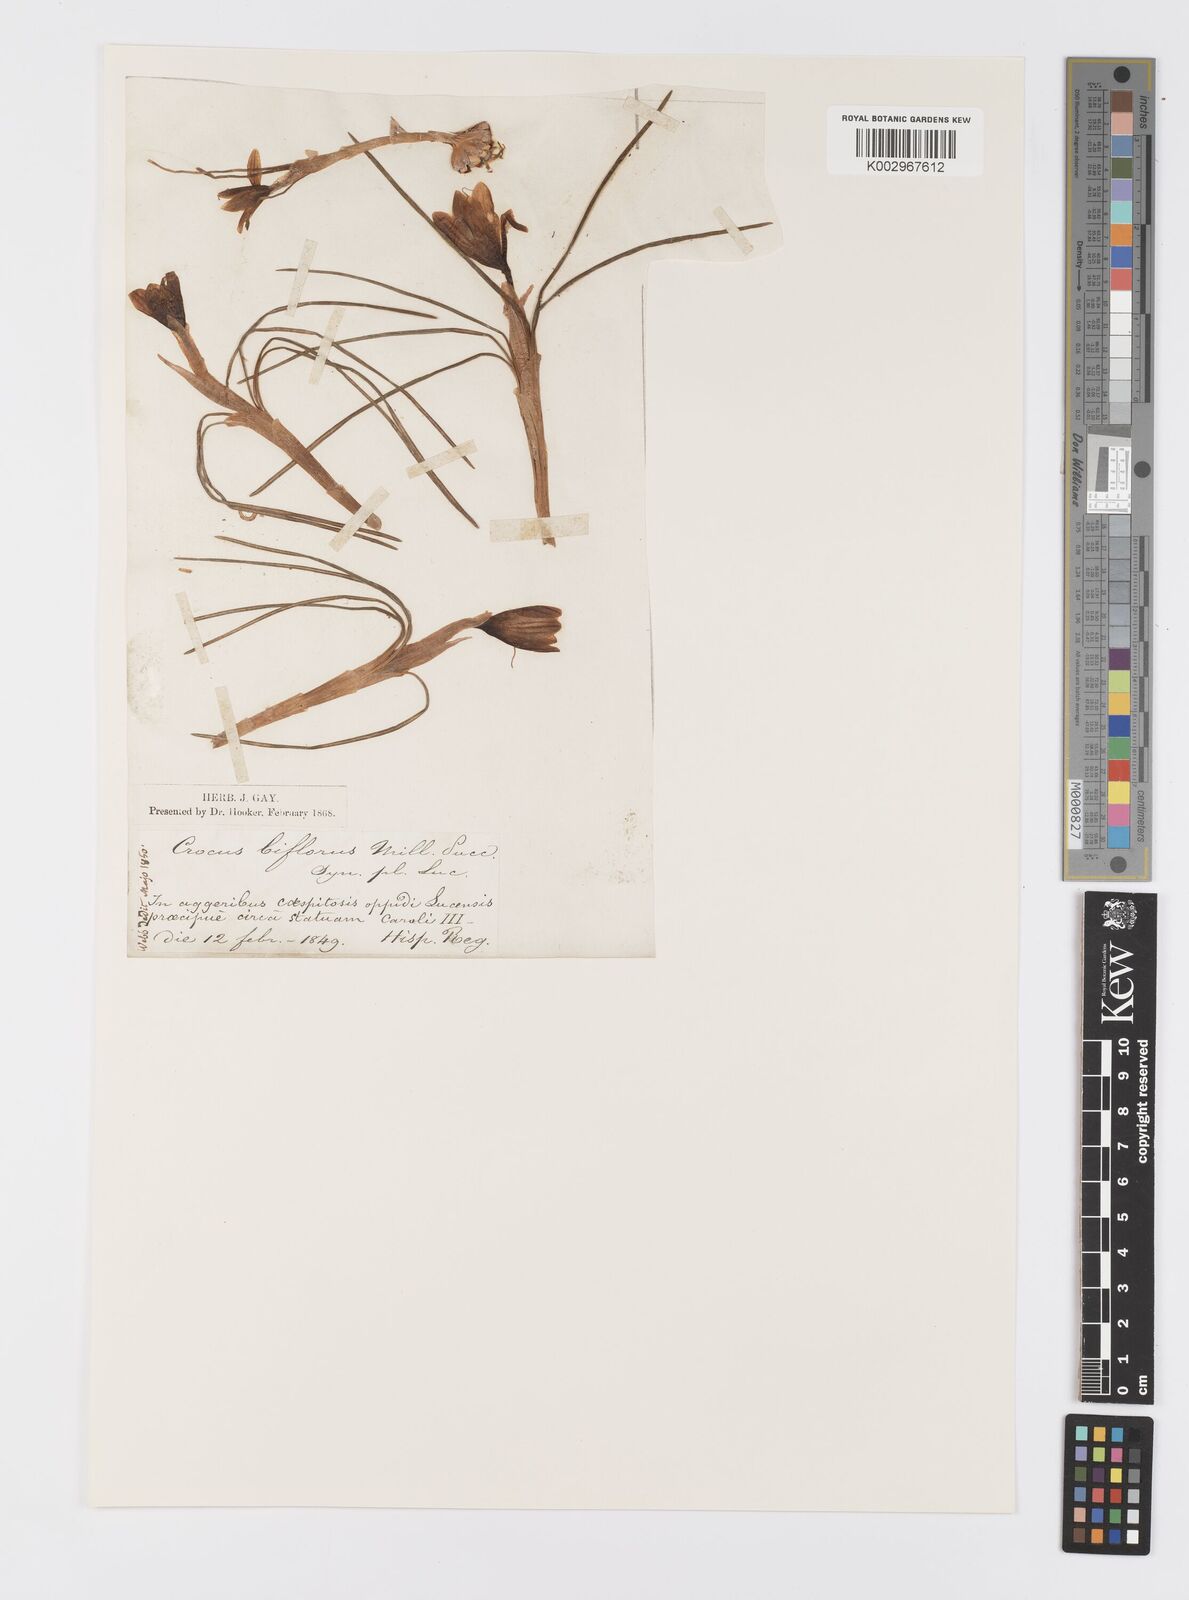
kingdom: Plantae
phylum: Tracheophyta
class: Liliopsida
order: Asparagales
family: Iridaceae
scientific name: Iridaceae
